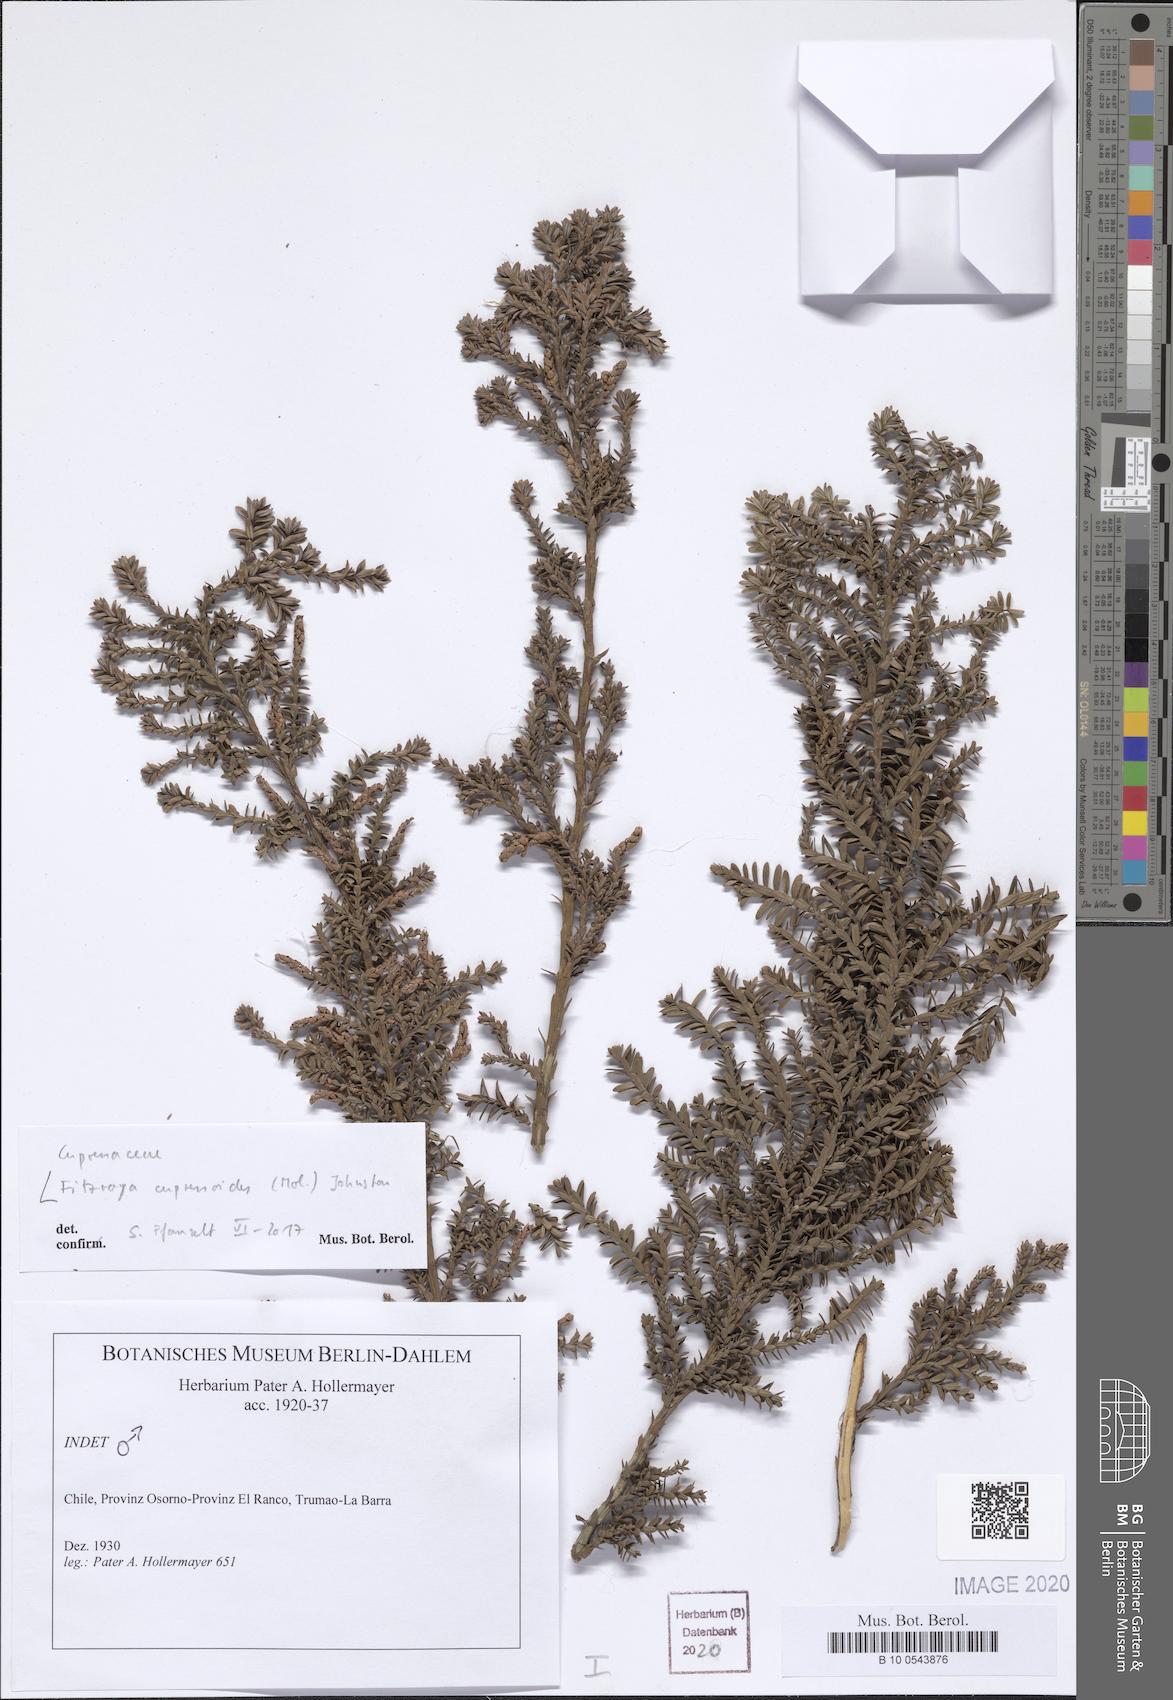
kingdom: Plantae
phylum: Tracheophyta
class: Pinopsida
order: Pinales
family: Cupressaceae
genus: Fitzroya
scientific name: Fitzroya cupressoides
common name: Patagonian cypress
